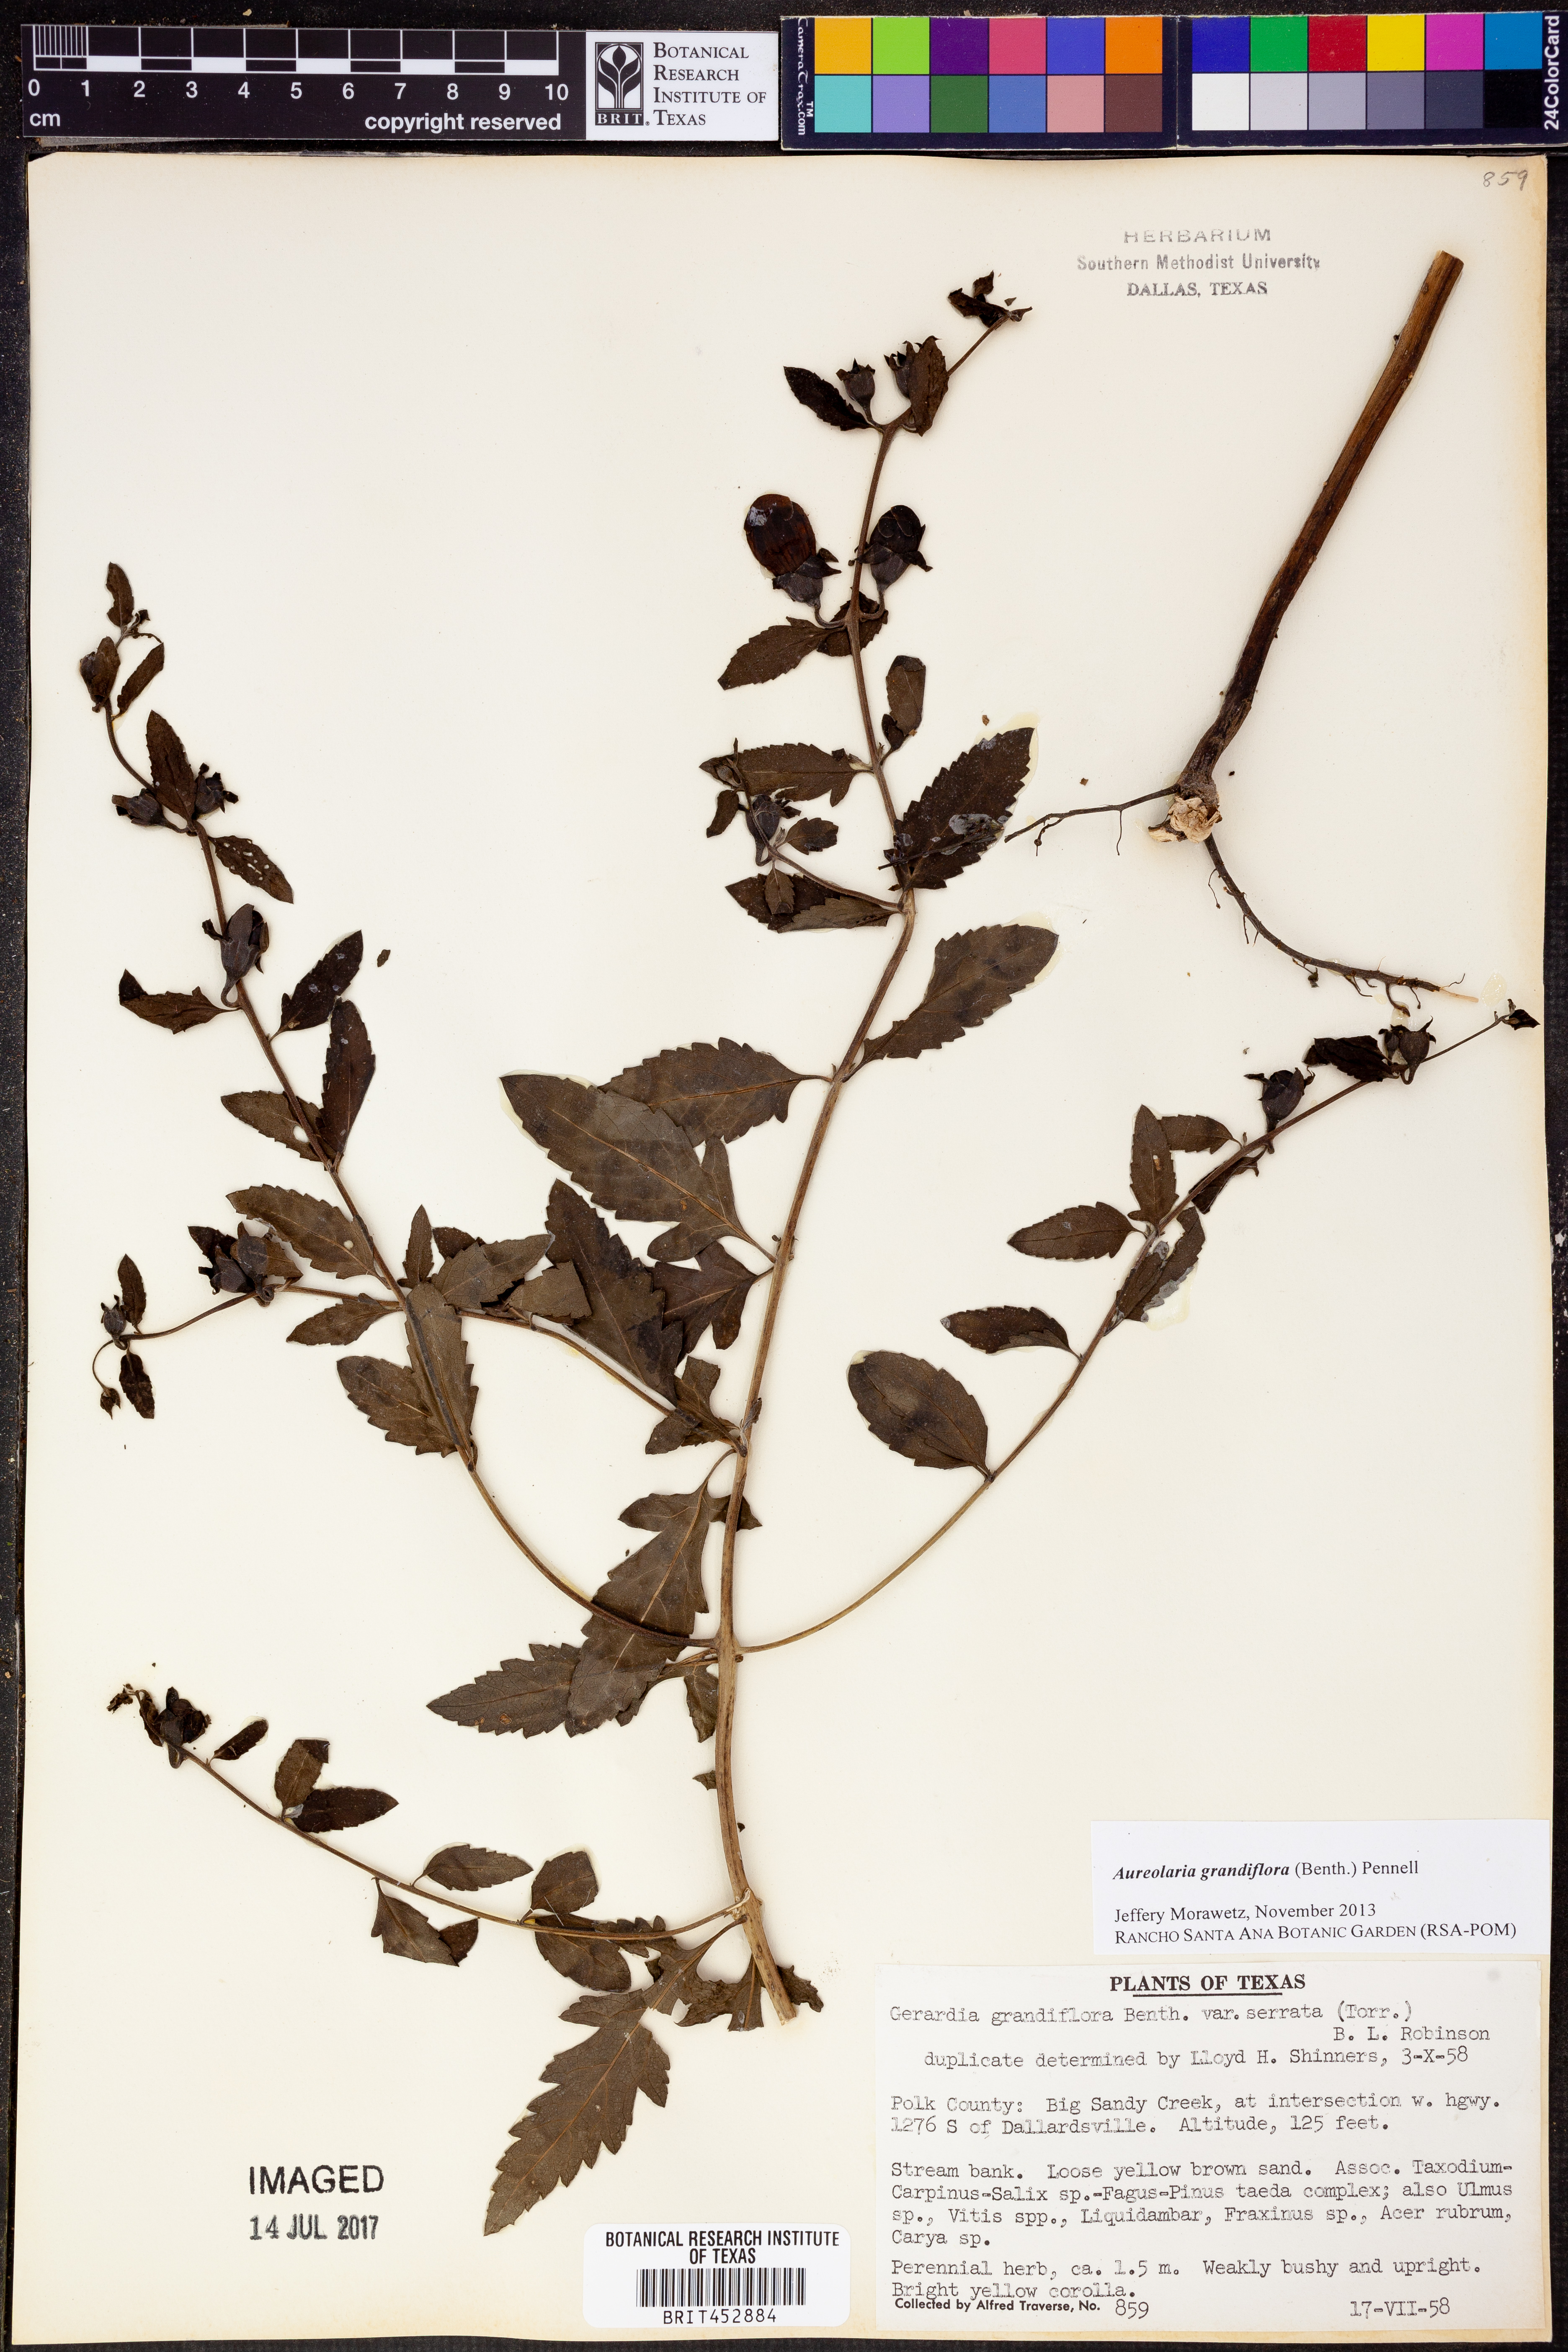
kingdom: Plantae
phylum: Tracheophyta
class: Magnoliopsida
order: Lamiales
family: Orobanchaceae
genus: Aureolaria
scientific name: Aureolaria grandiflora
